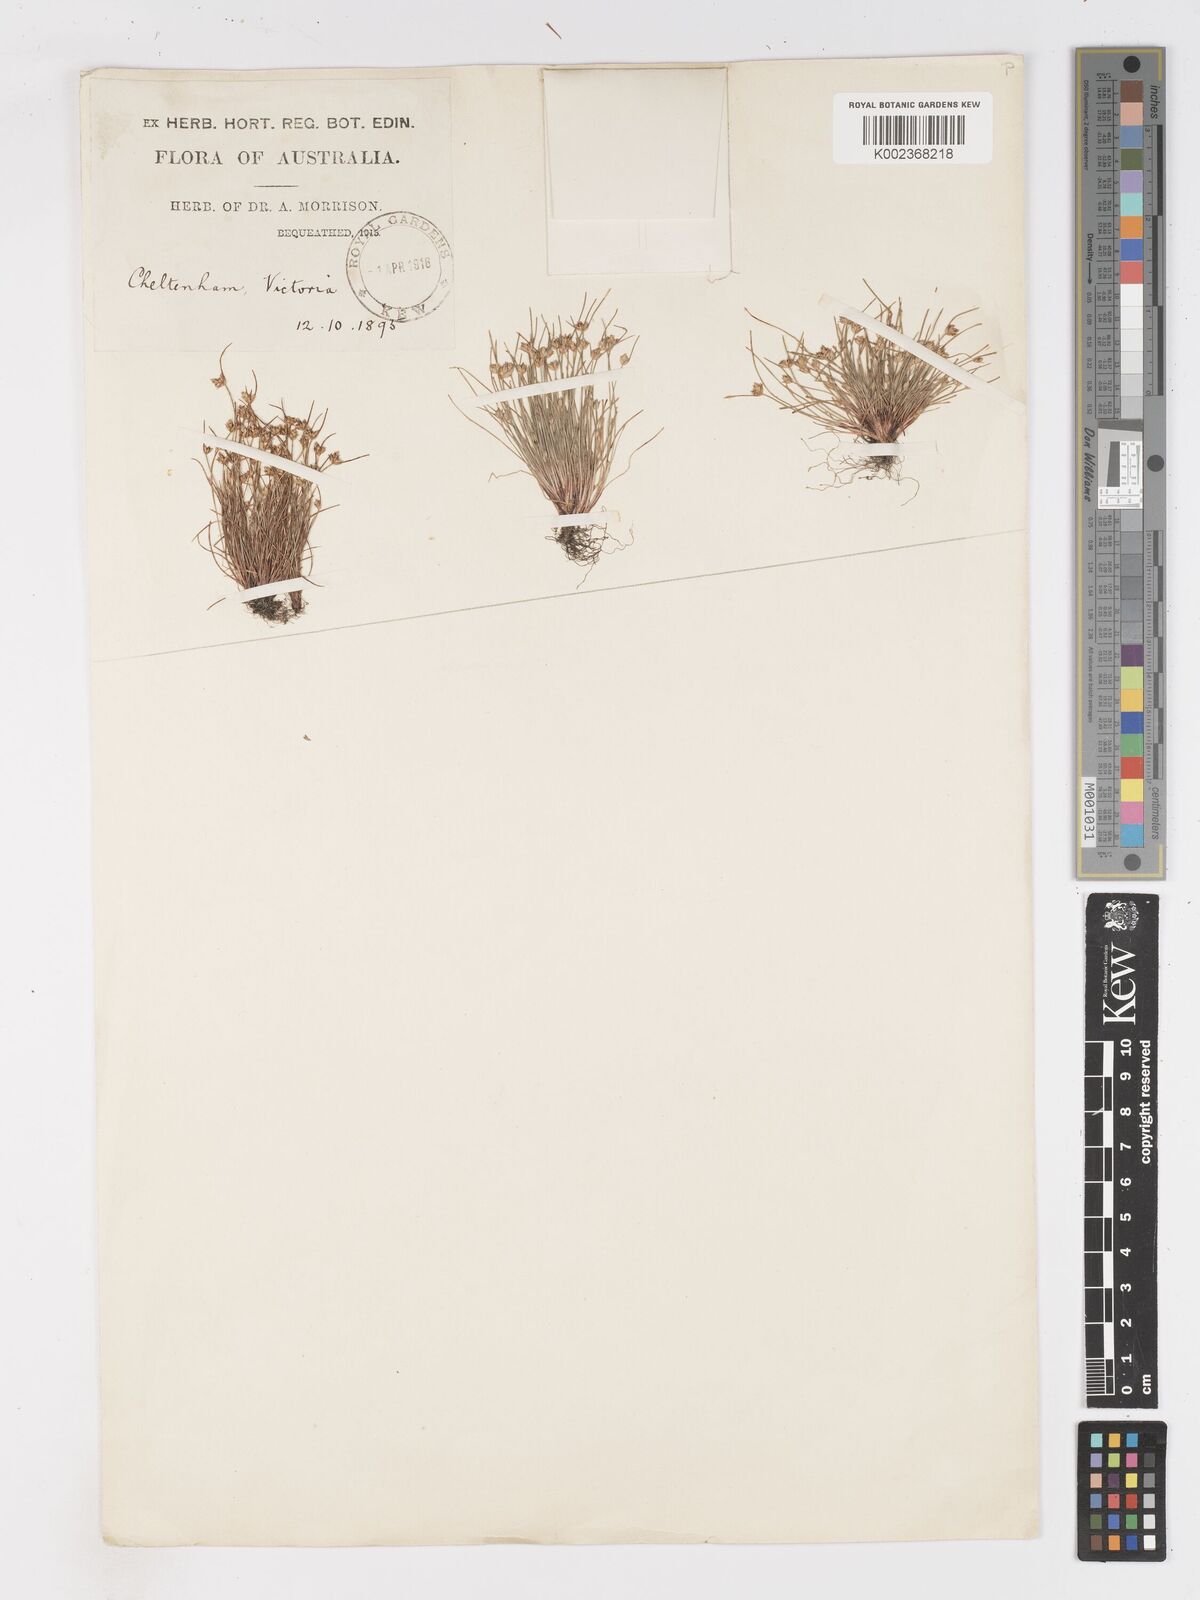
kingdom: Plantae
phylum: Tracheophyta
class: Liliopsida
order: Poales
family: Cyperaceae
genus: Isolepis
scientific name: Isolepis marginata
